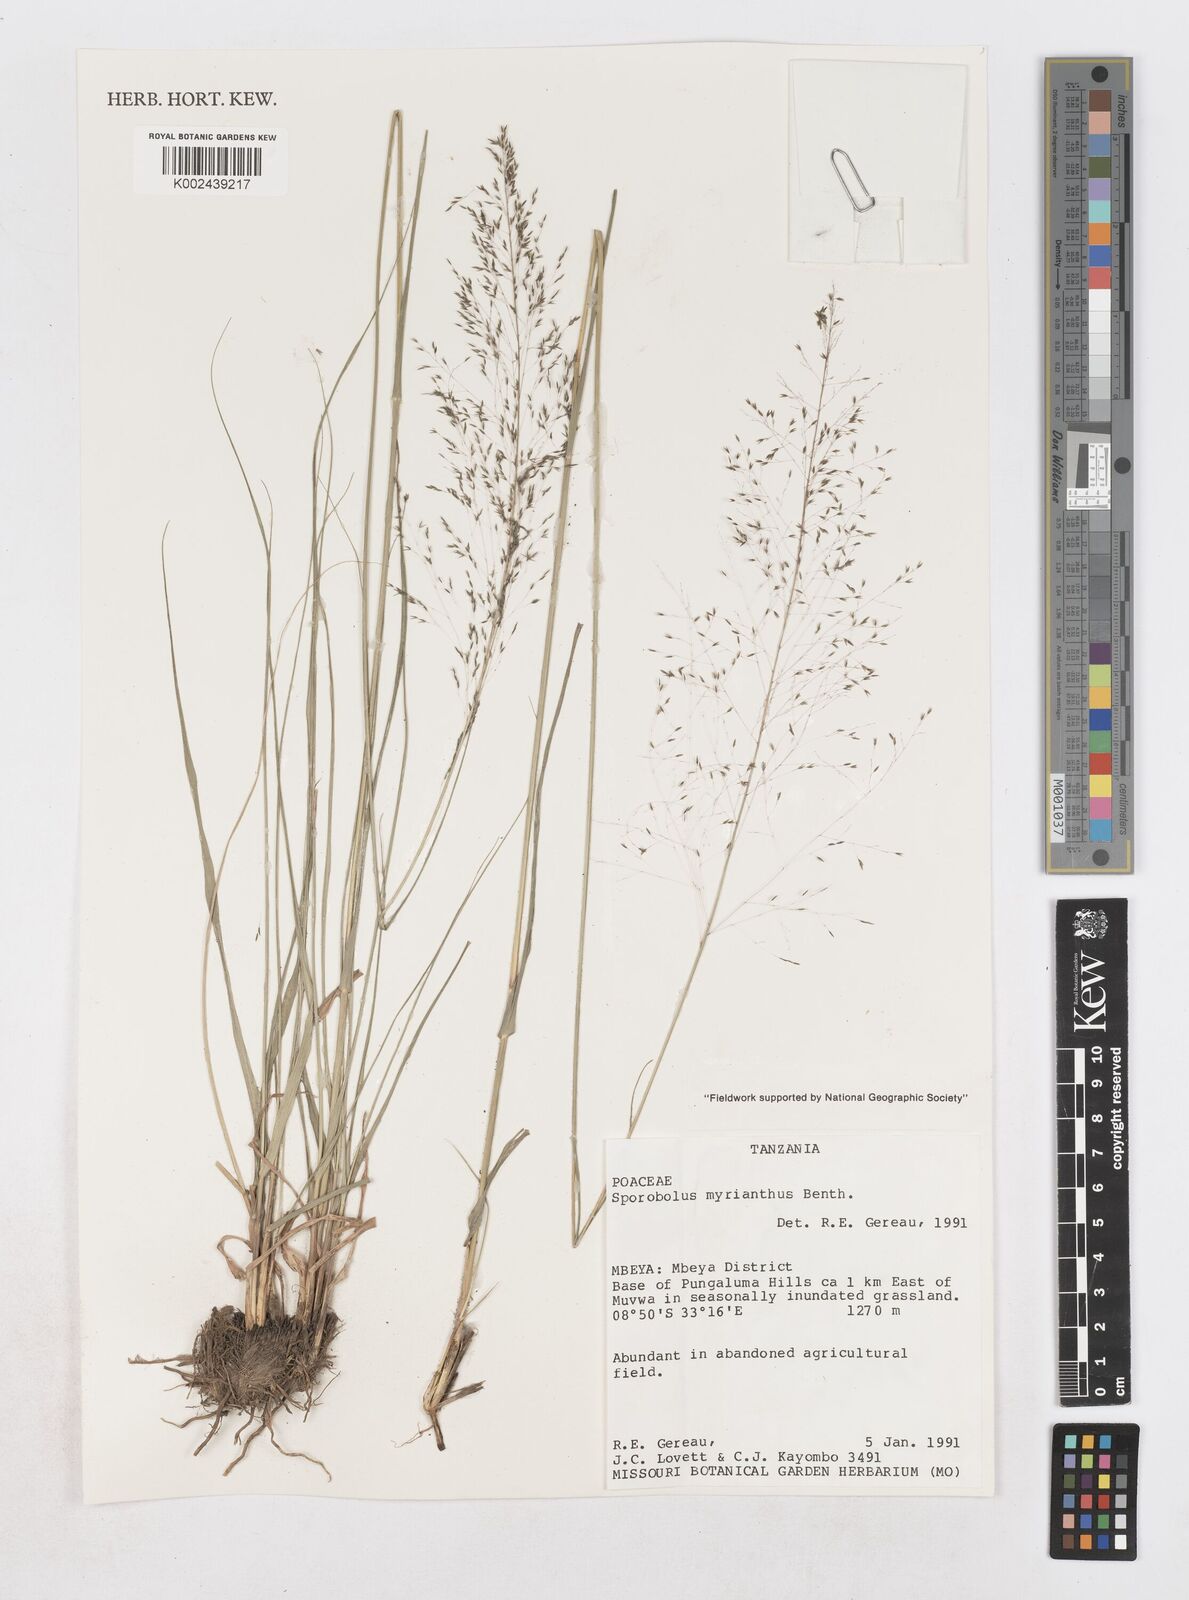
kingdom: Plantae
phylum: Tracheophyta
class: Liliopsida
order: Poales
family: Poaceae
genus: Sporobolus
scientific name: Sporobolus myrianthus
